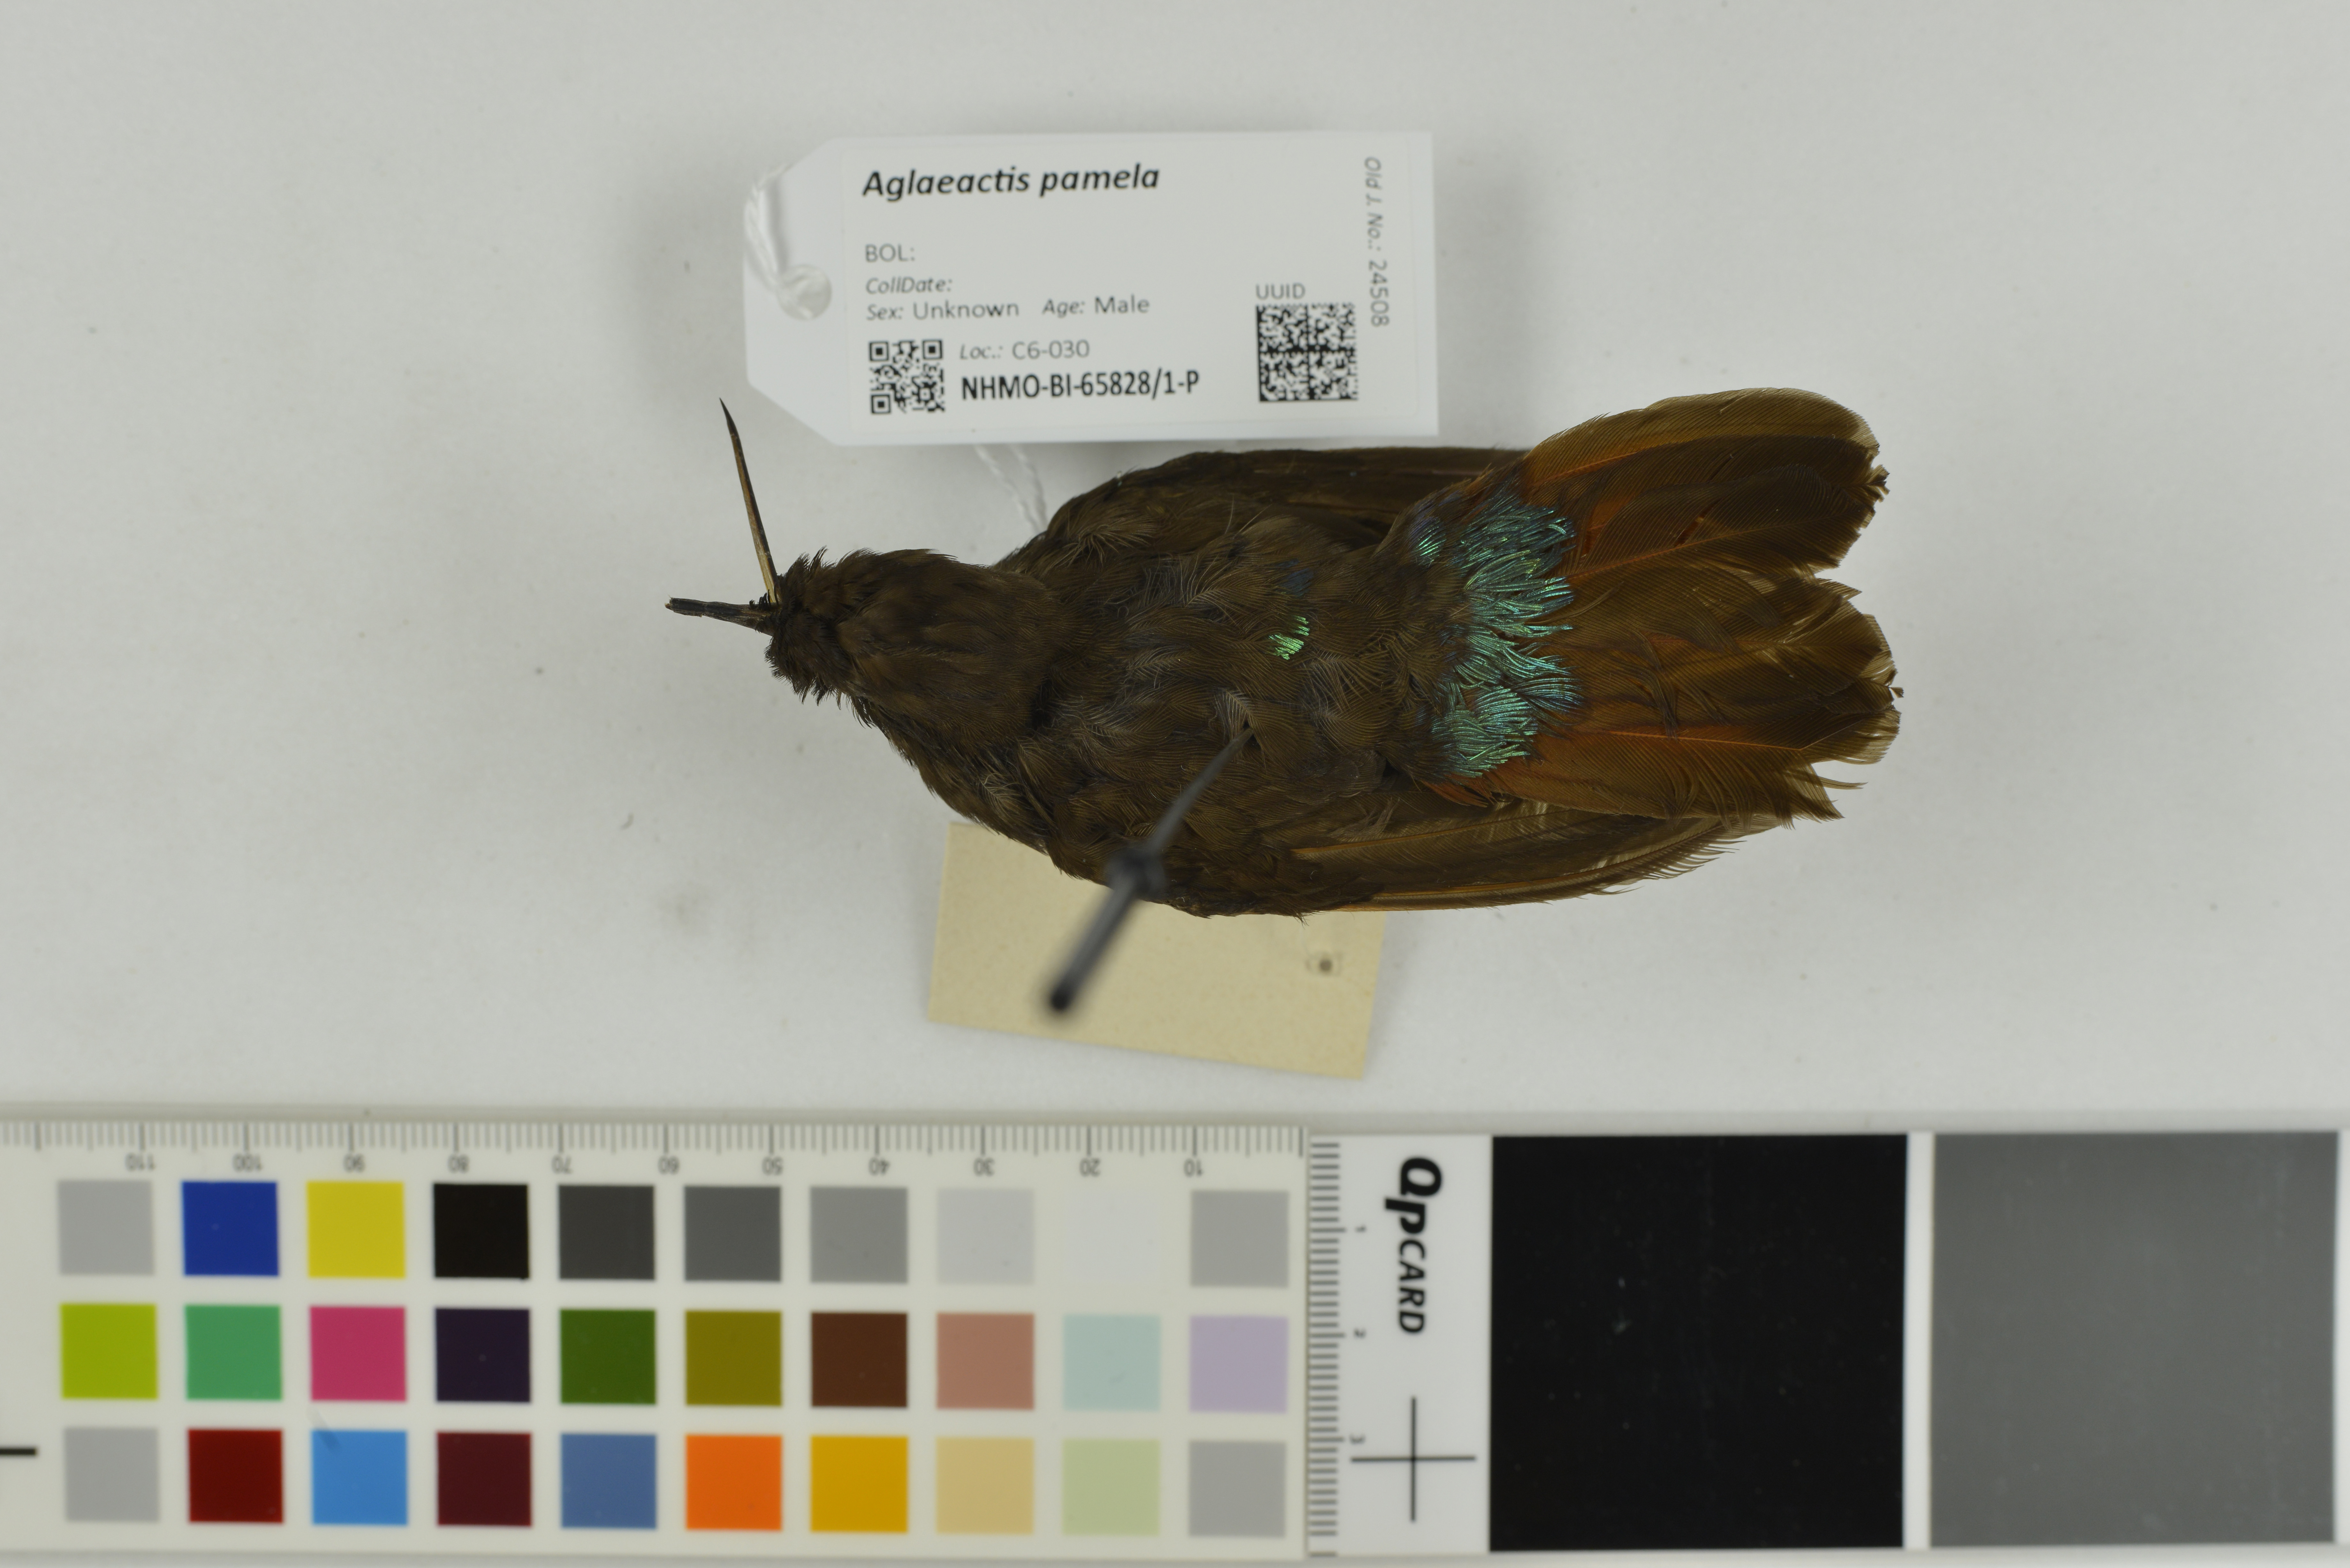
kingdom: Animalia
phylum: Chordata
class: Aves
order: Apodiformes
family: Trochilidae
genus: Aglaeactis
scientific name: Aglaeactis pamela
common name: Black-hooded sunbeam
